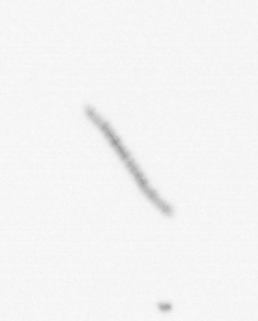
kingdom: Chromista
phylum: Ochrophyta
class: Bacillariophyceae
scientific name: Bacillariophyceae
